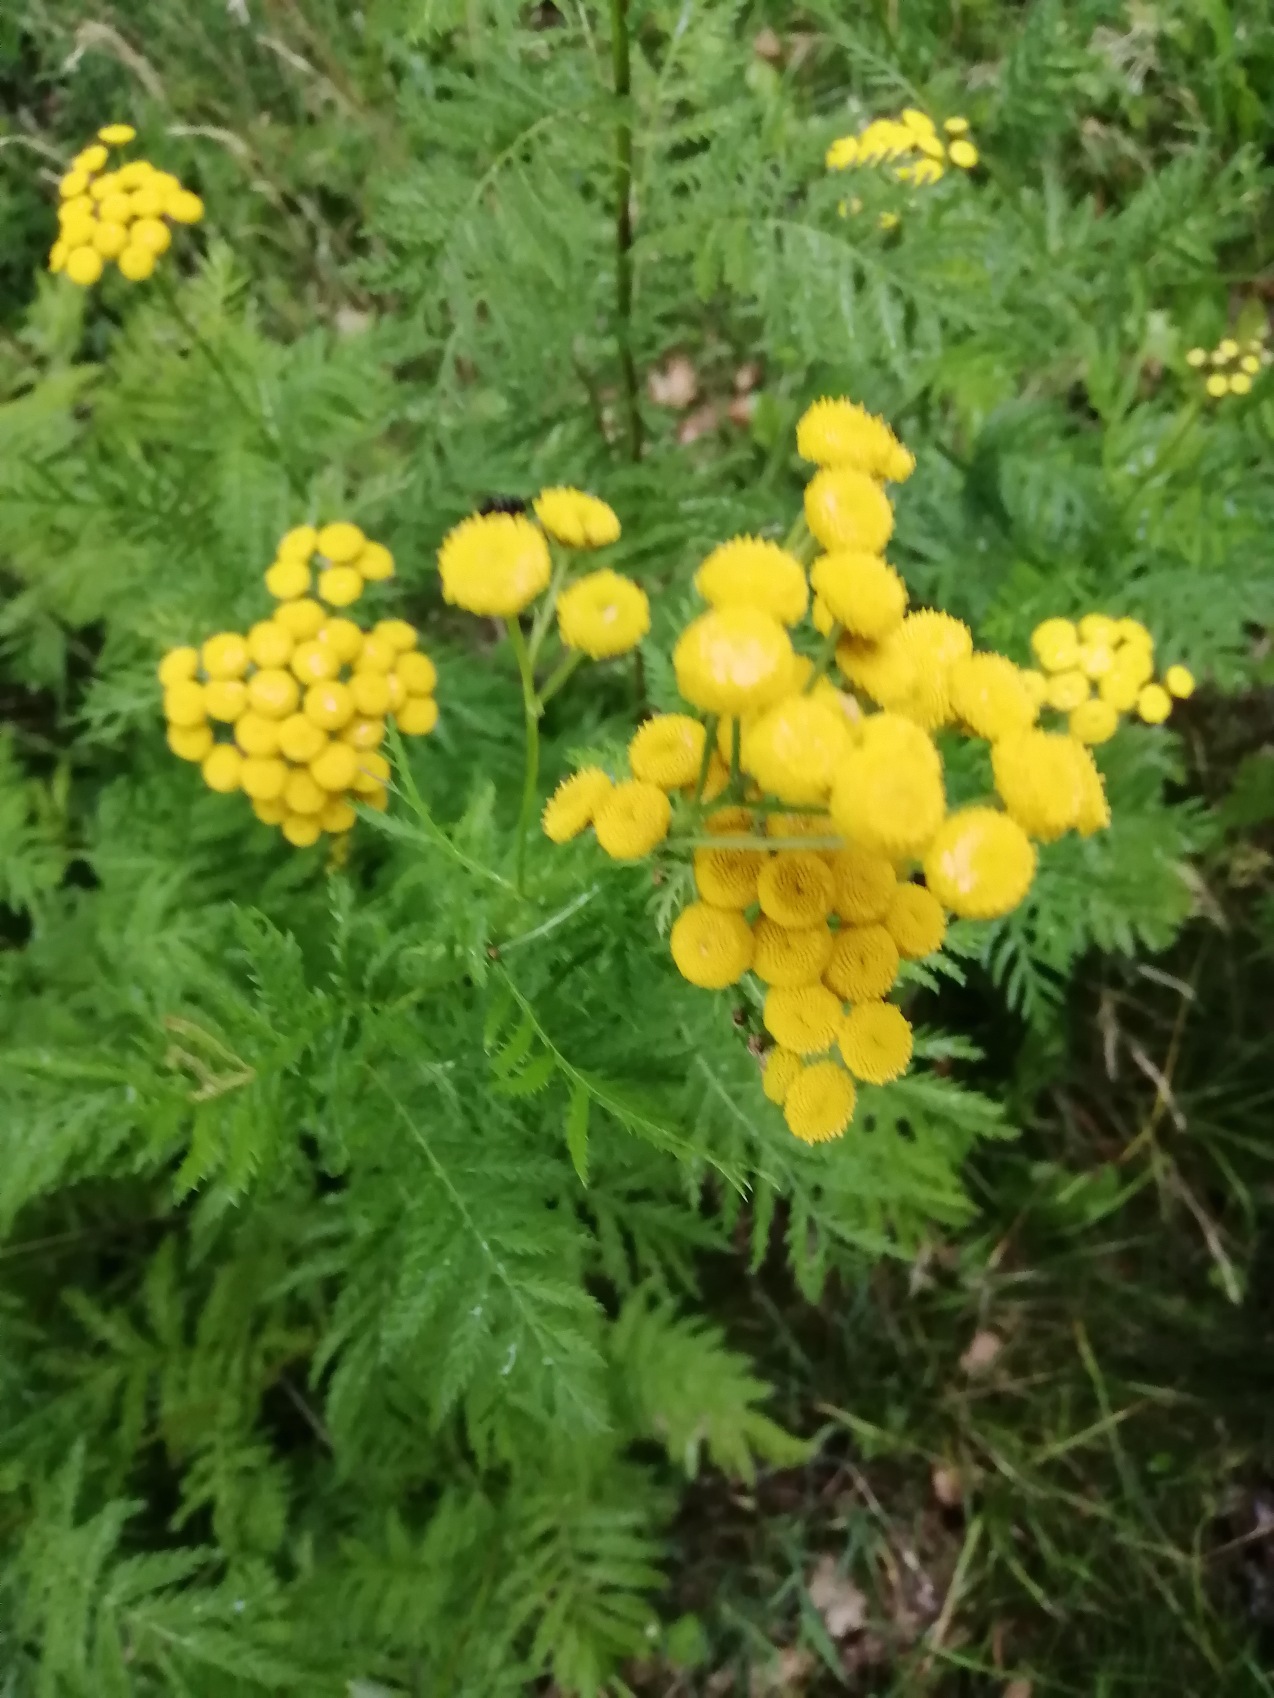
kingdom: Plantae
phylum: Tracheophyta
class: Magnoliopsida
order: Asterales
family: Asteraceae
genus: Tanacetum
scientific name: Tanacetum vulgare
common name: Rejnfan
